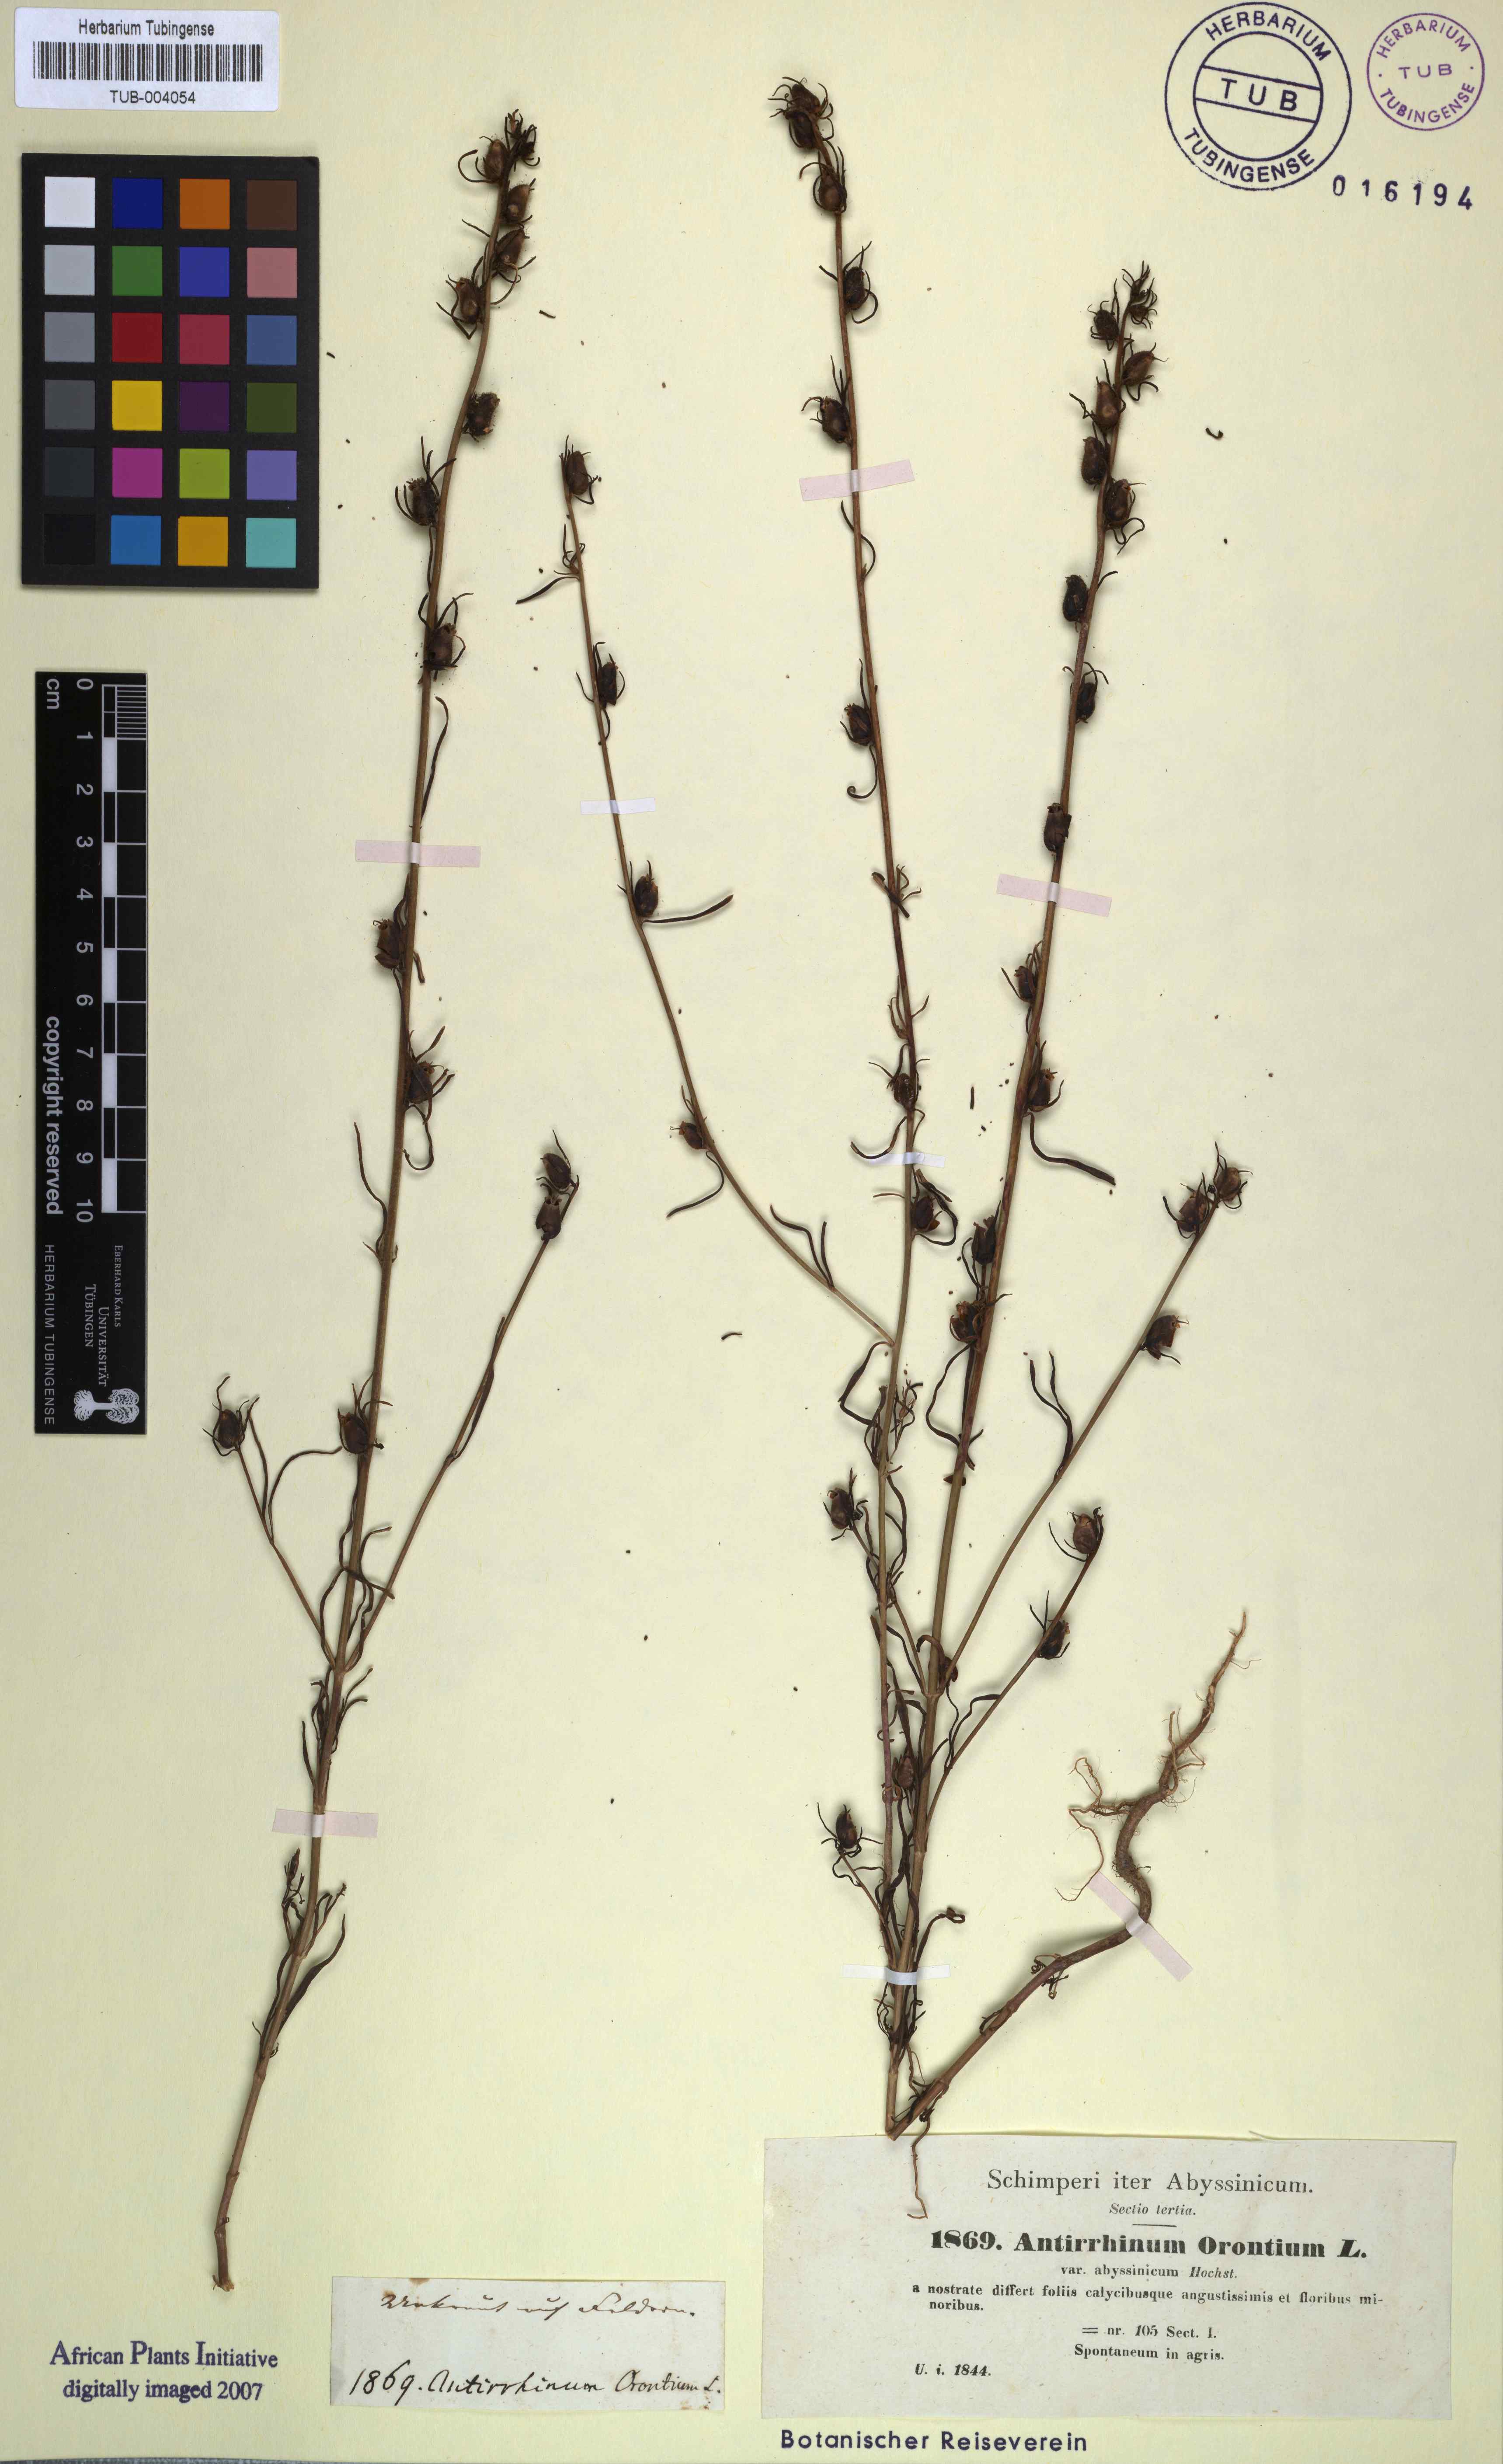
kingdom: Plantae
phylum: Tracheophyta
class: Magnoliopsida
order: Lamiales
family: Plantaginaceae
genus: Misopates
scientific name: Misopates orontium
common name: Weasel's-snout
